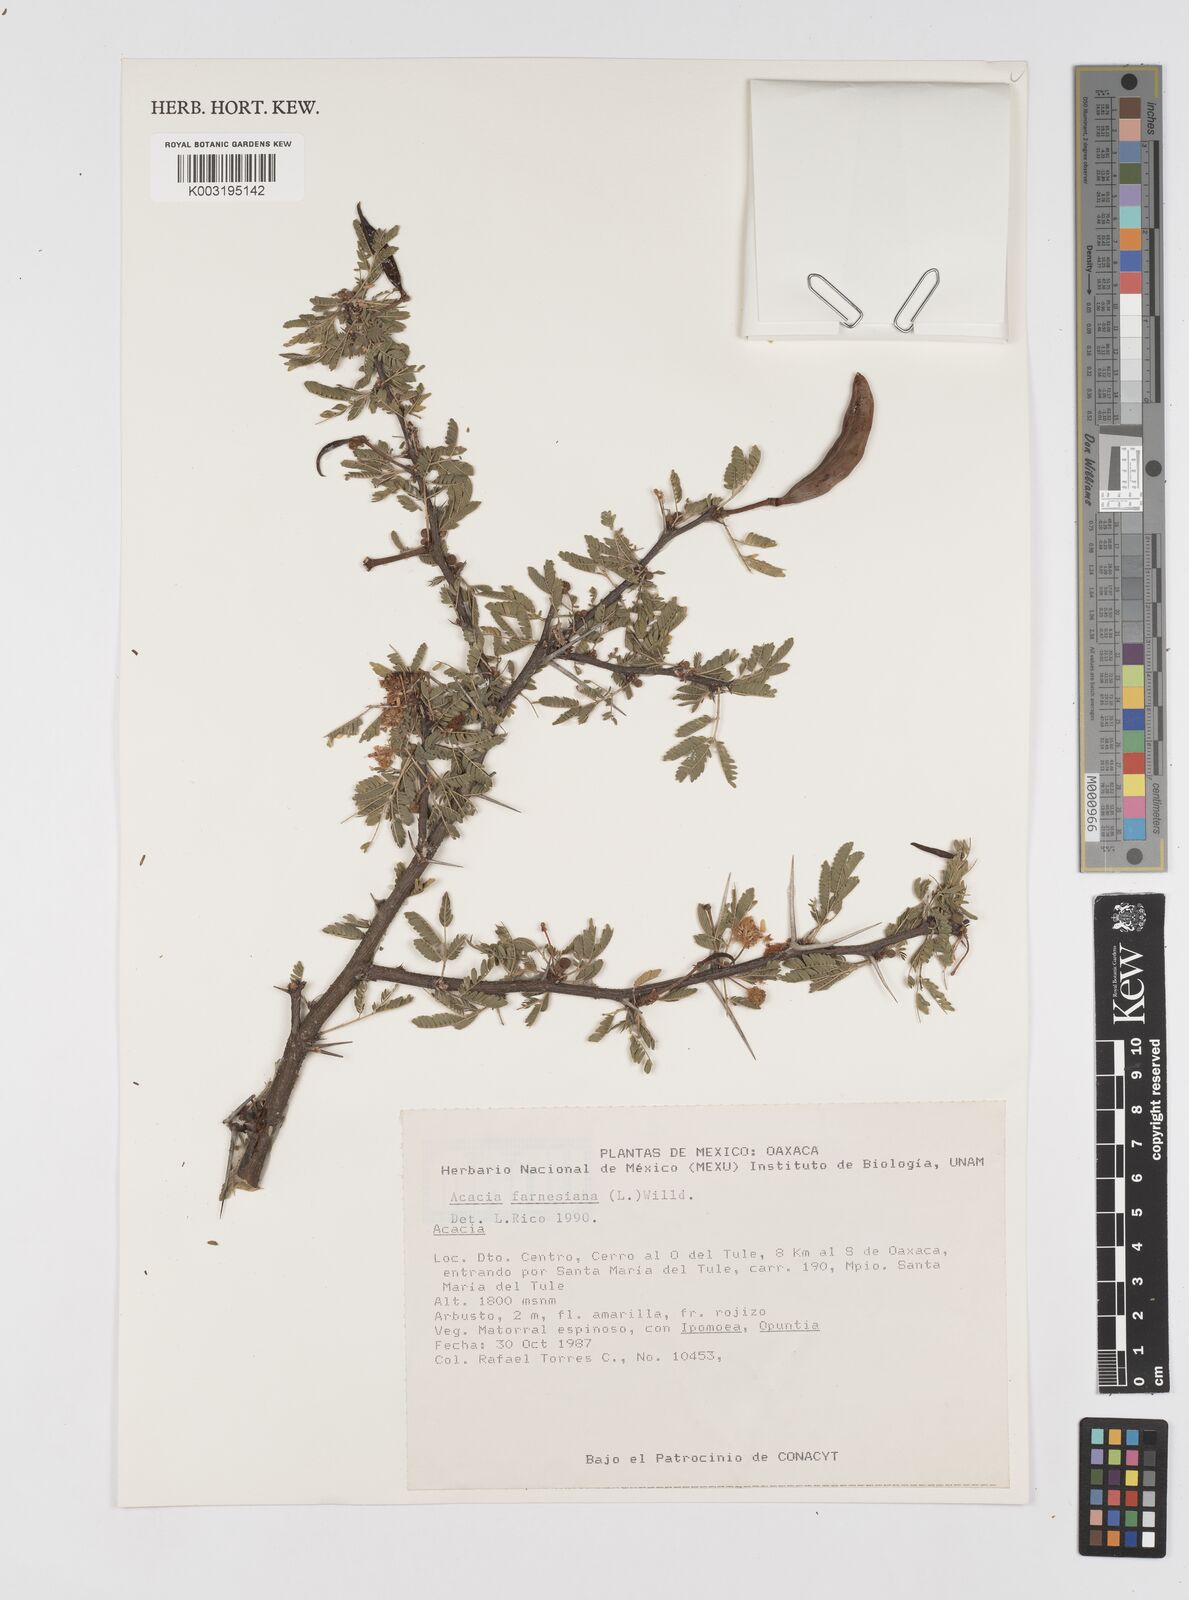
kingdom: Plantae
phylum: Tracheophyta
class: Magnoliopsida
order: Fabales
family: Fabaceae
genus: Vachellia
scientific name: Vachellia farnesiana
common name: Sweet acacia
